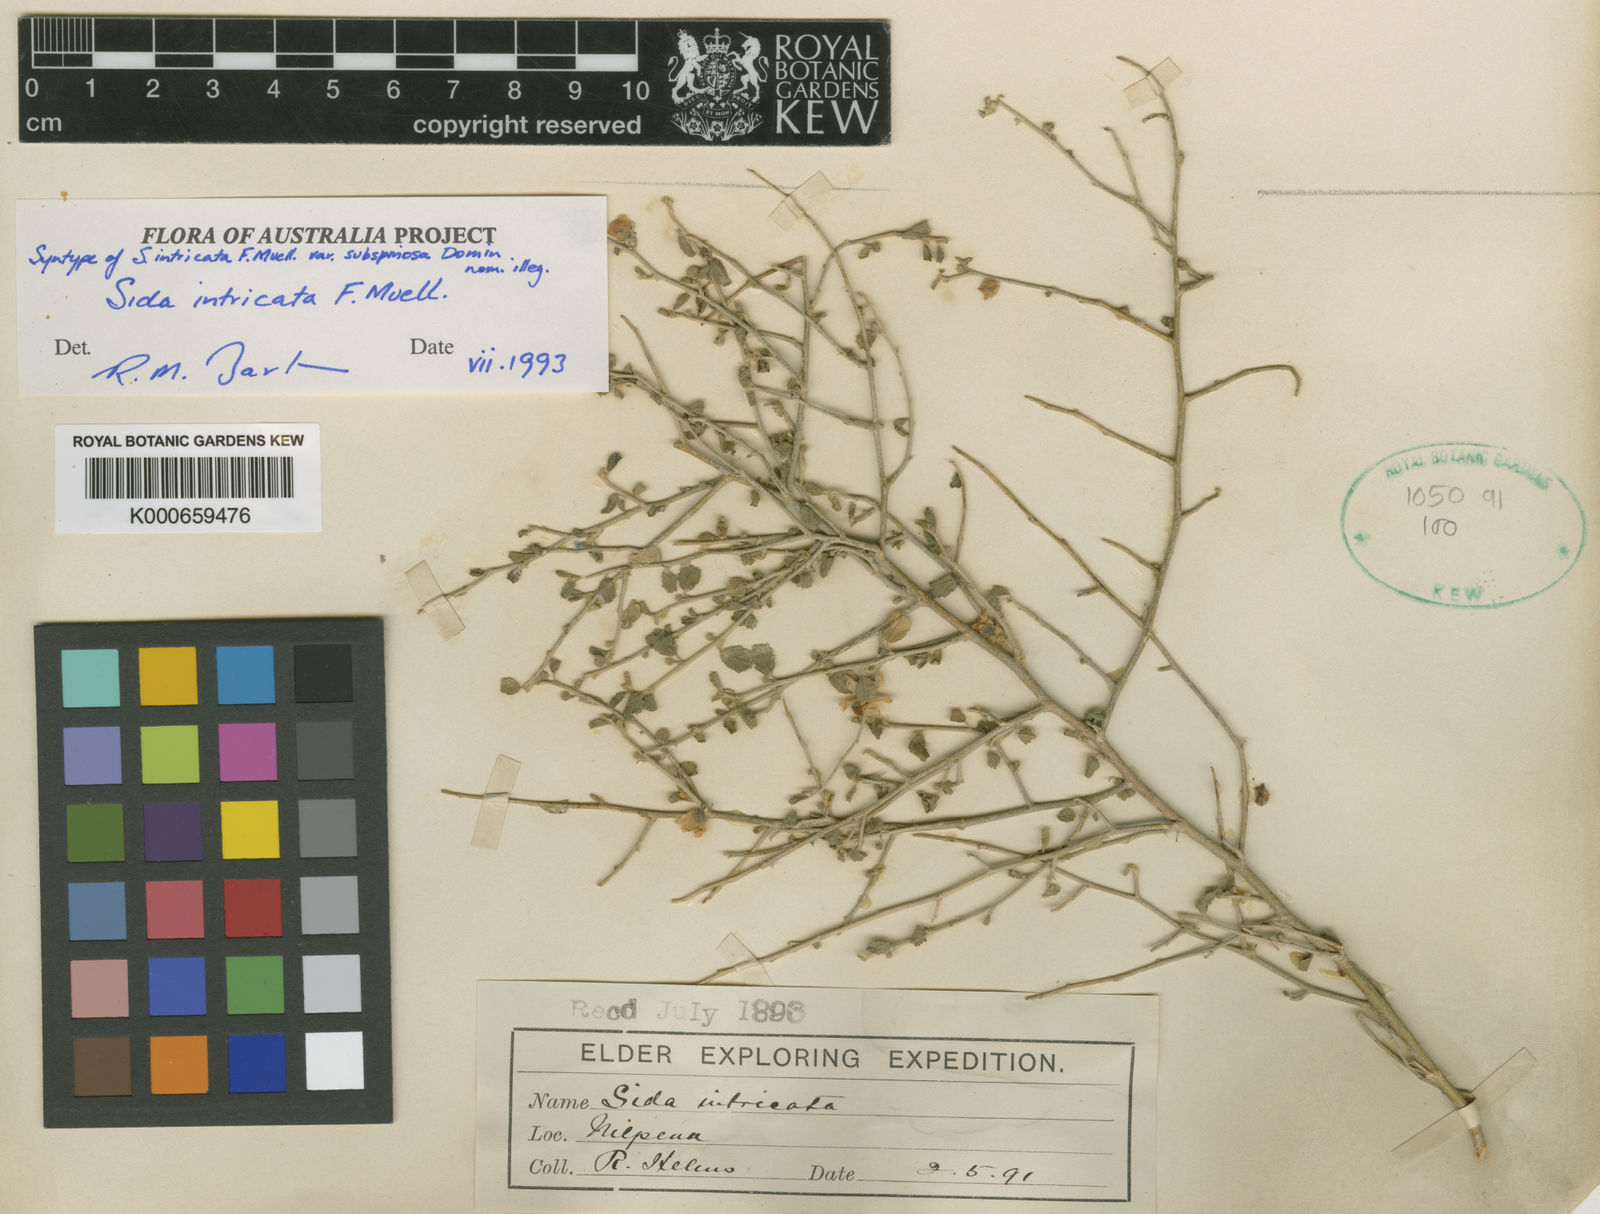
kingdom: Plantae
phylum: Tracheophyta
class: Magnoliopsida
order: Malvales
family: Malvaceae
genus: Sida
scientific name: Sida intricata
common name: Twiggy sida
